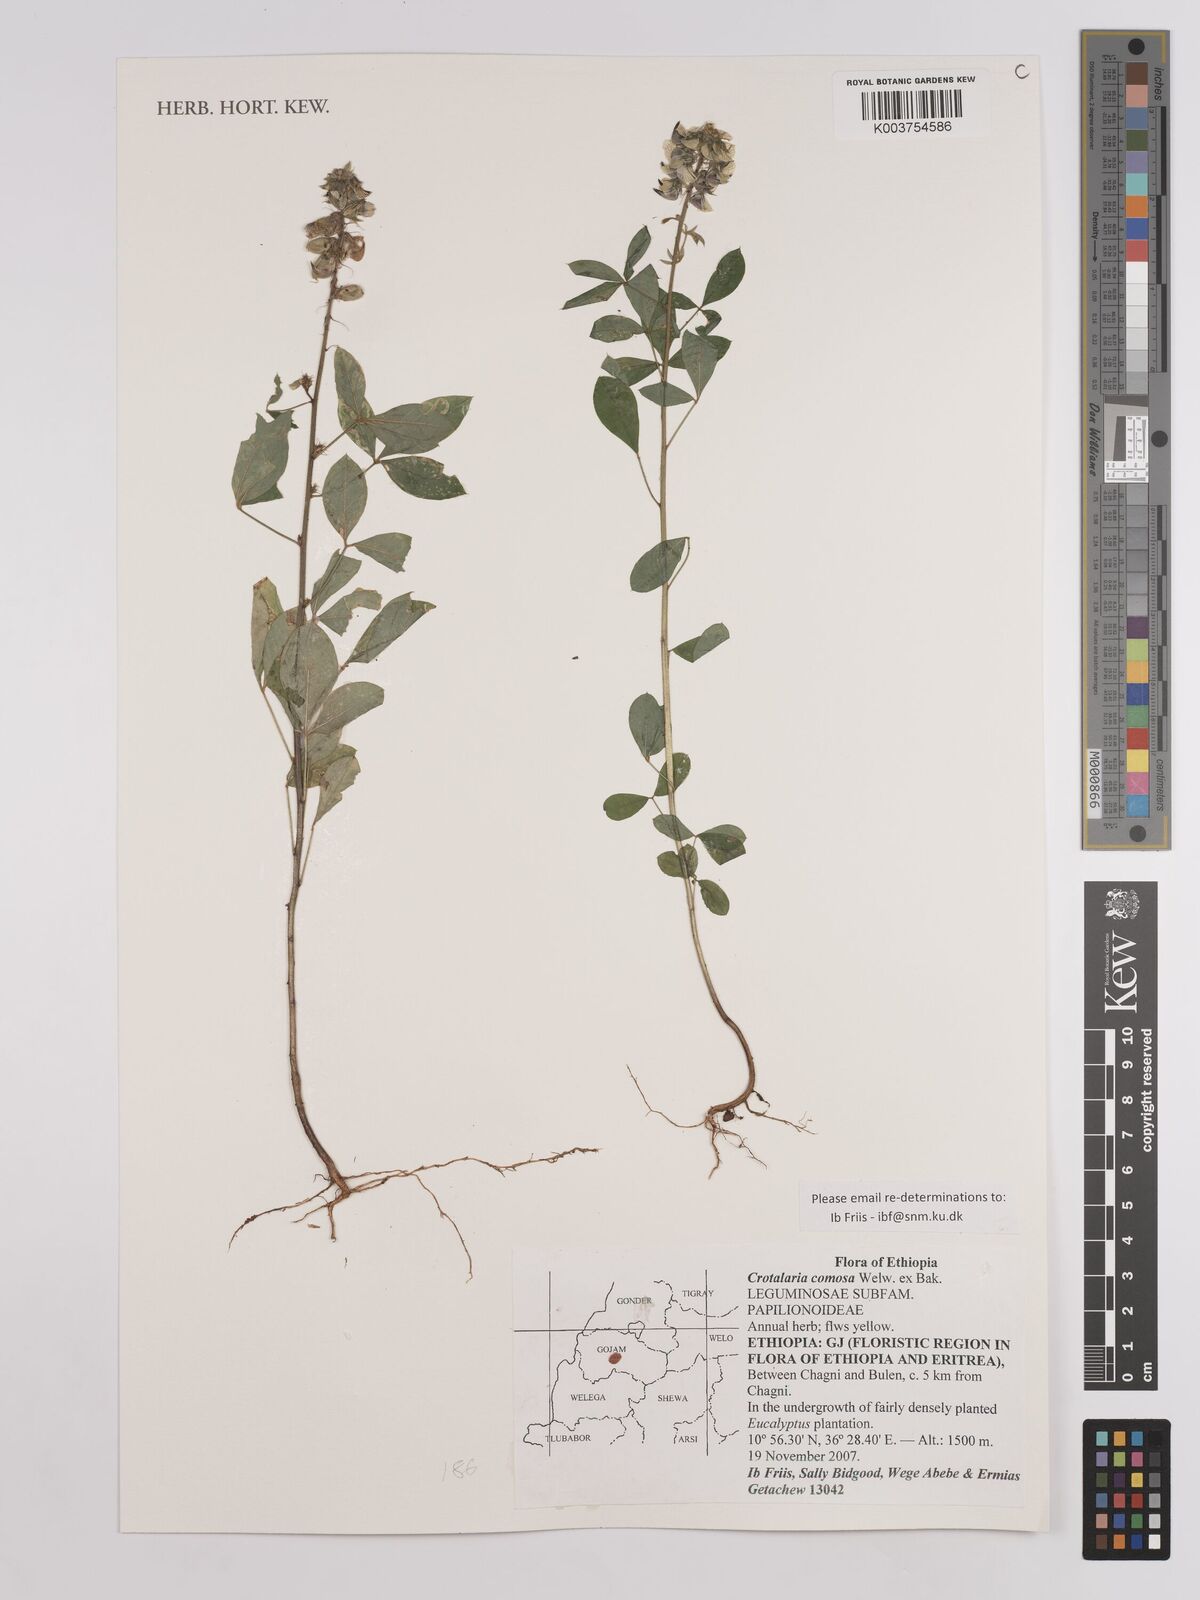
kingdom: Plantae
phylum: Tracheophyta
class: Magnoliopsida
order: Fabales
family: Fabaceae
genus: Crotalaria
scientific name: Crotalaria comosa
